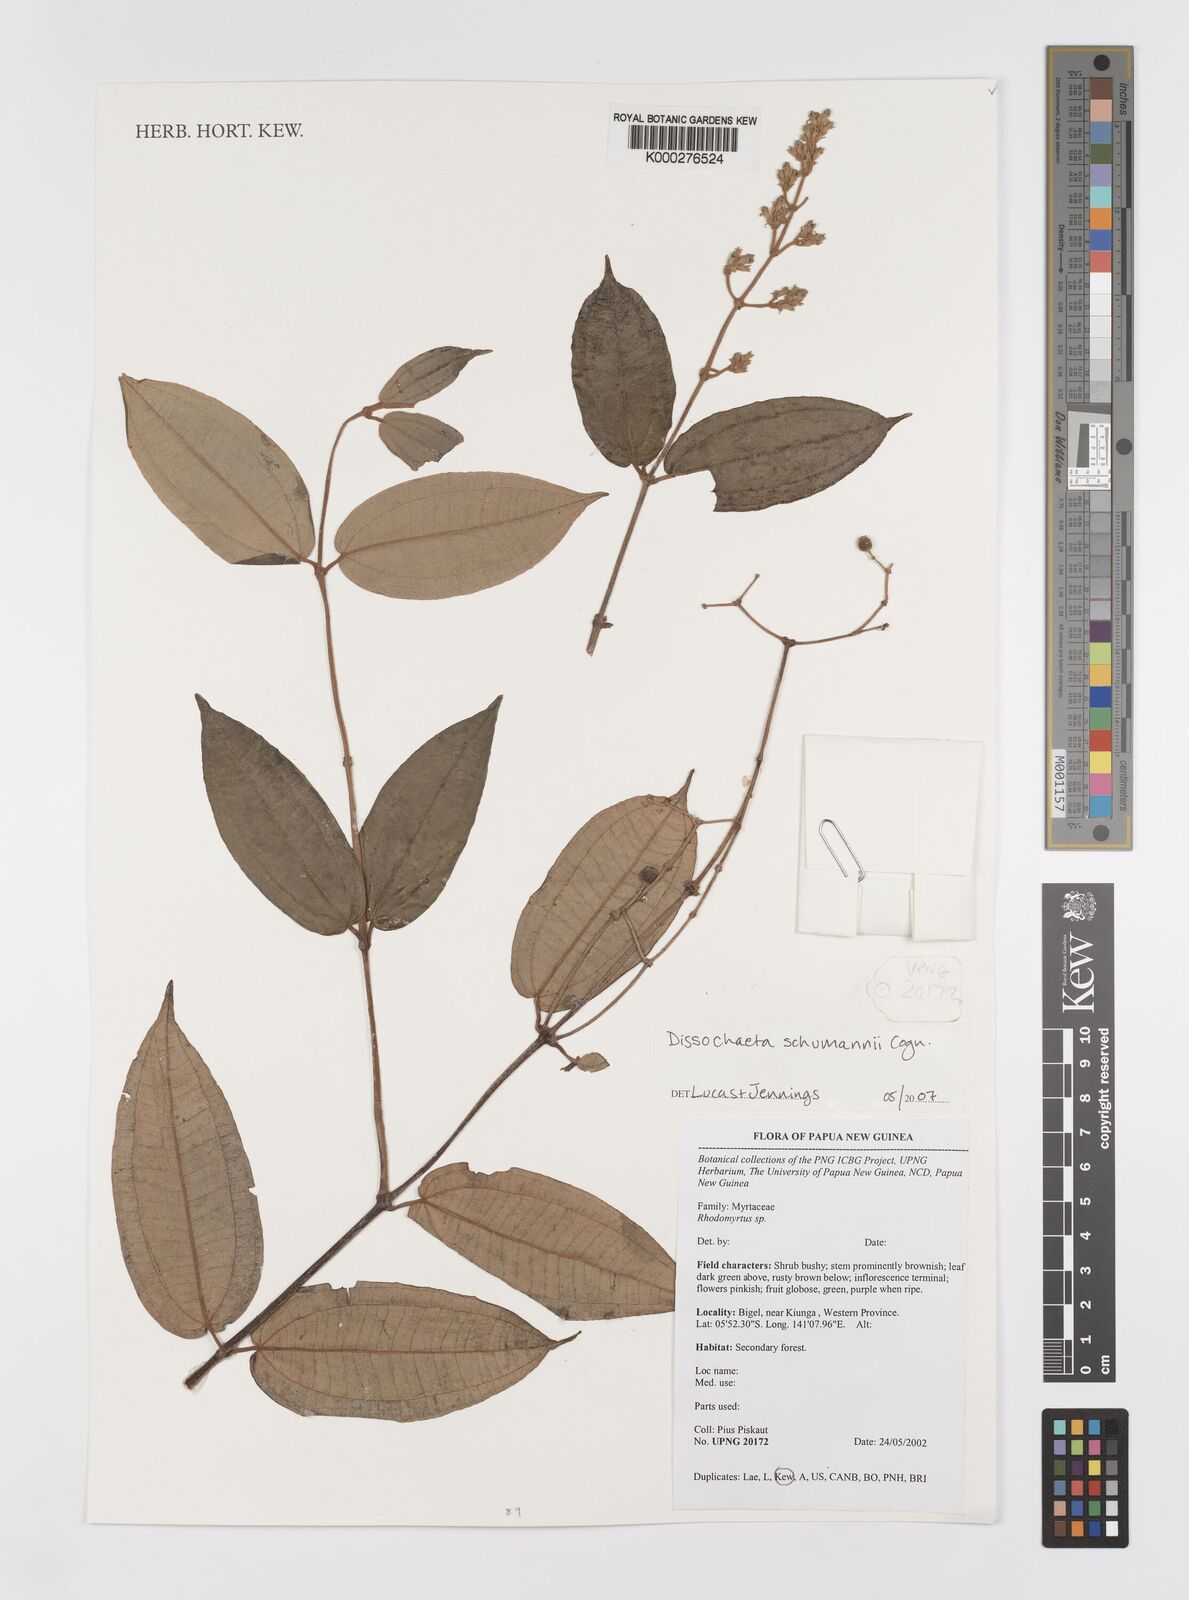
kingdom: Plantae
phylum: Tracheophyta
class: Magnoliopsida
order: Myrtales
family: Melastomataceae
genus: Dissochaeta
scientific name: Dissochaeta schumannii
